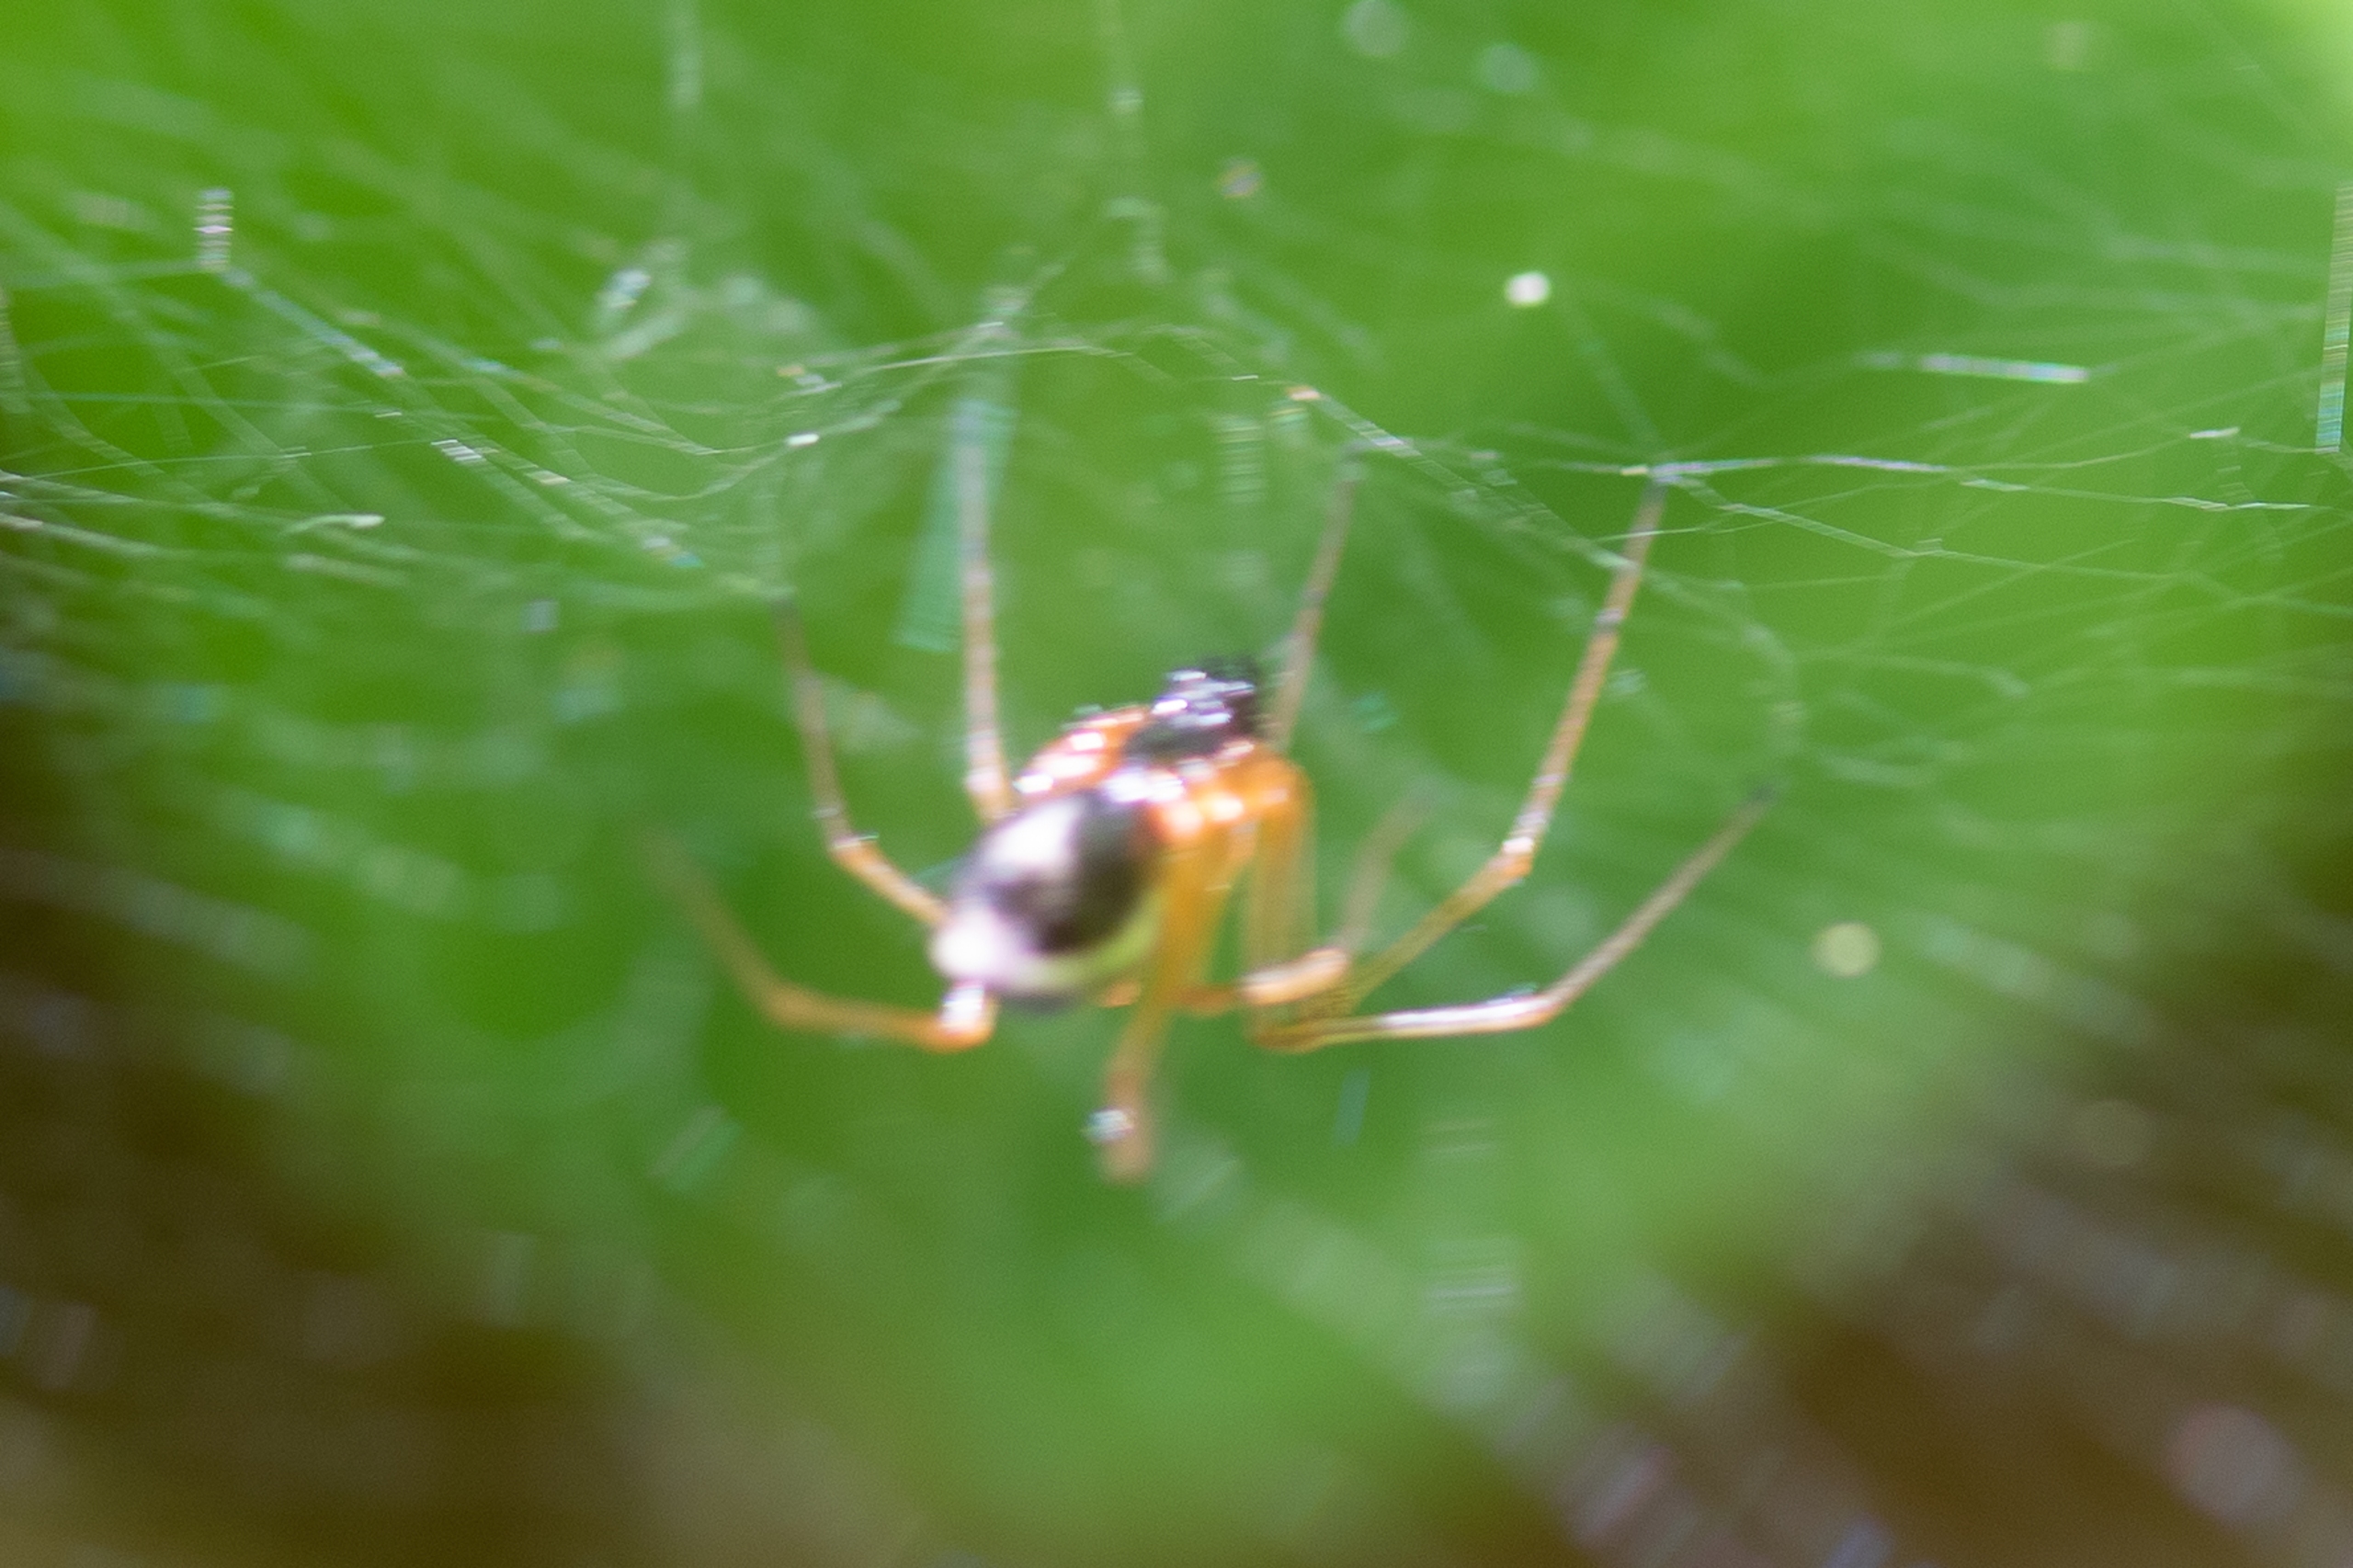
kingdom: Animalia
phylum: Arthropoda
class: Arachnida
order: Araneae
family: Linyphiidae
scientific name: Linyphiidae
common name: Tæppespindere
